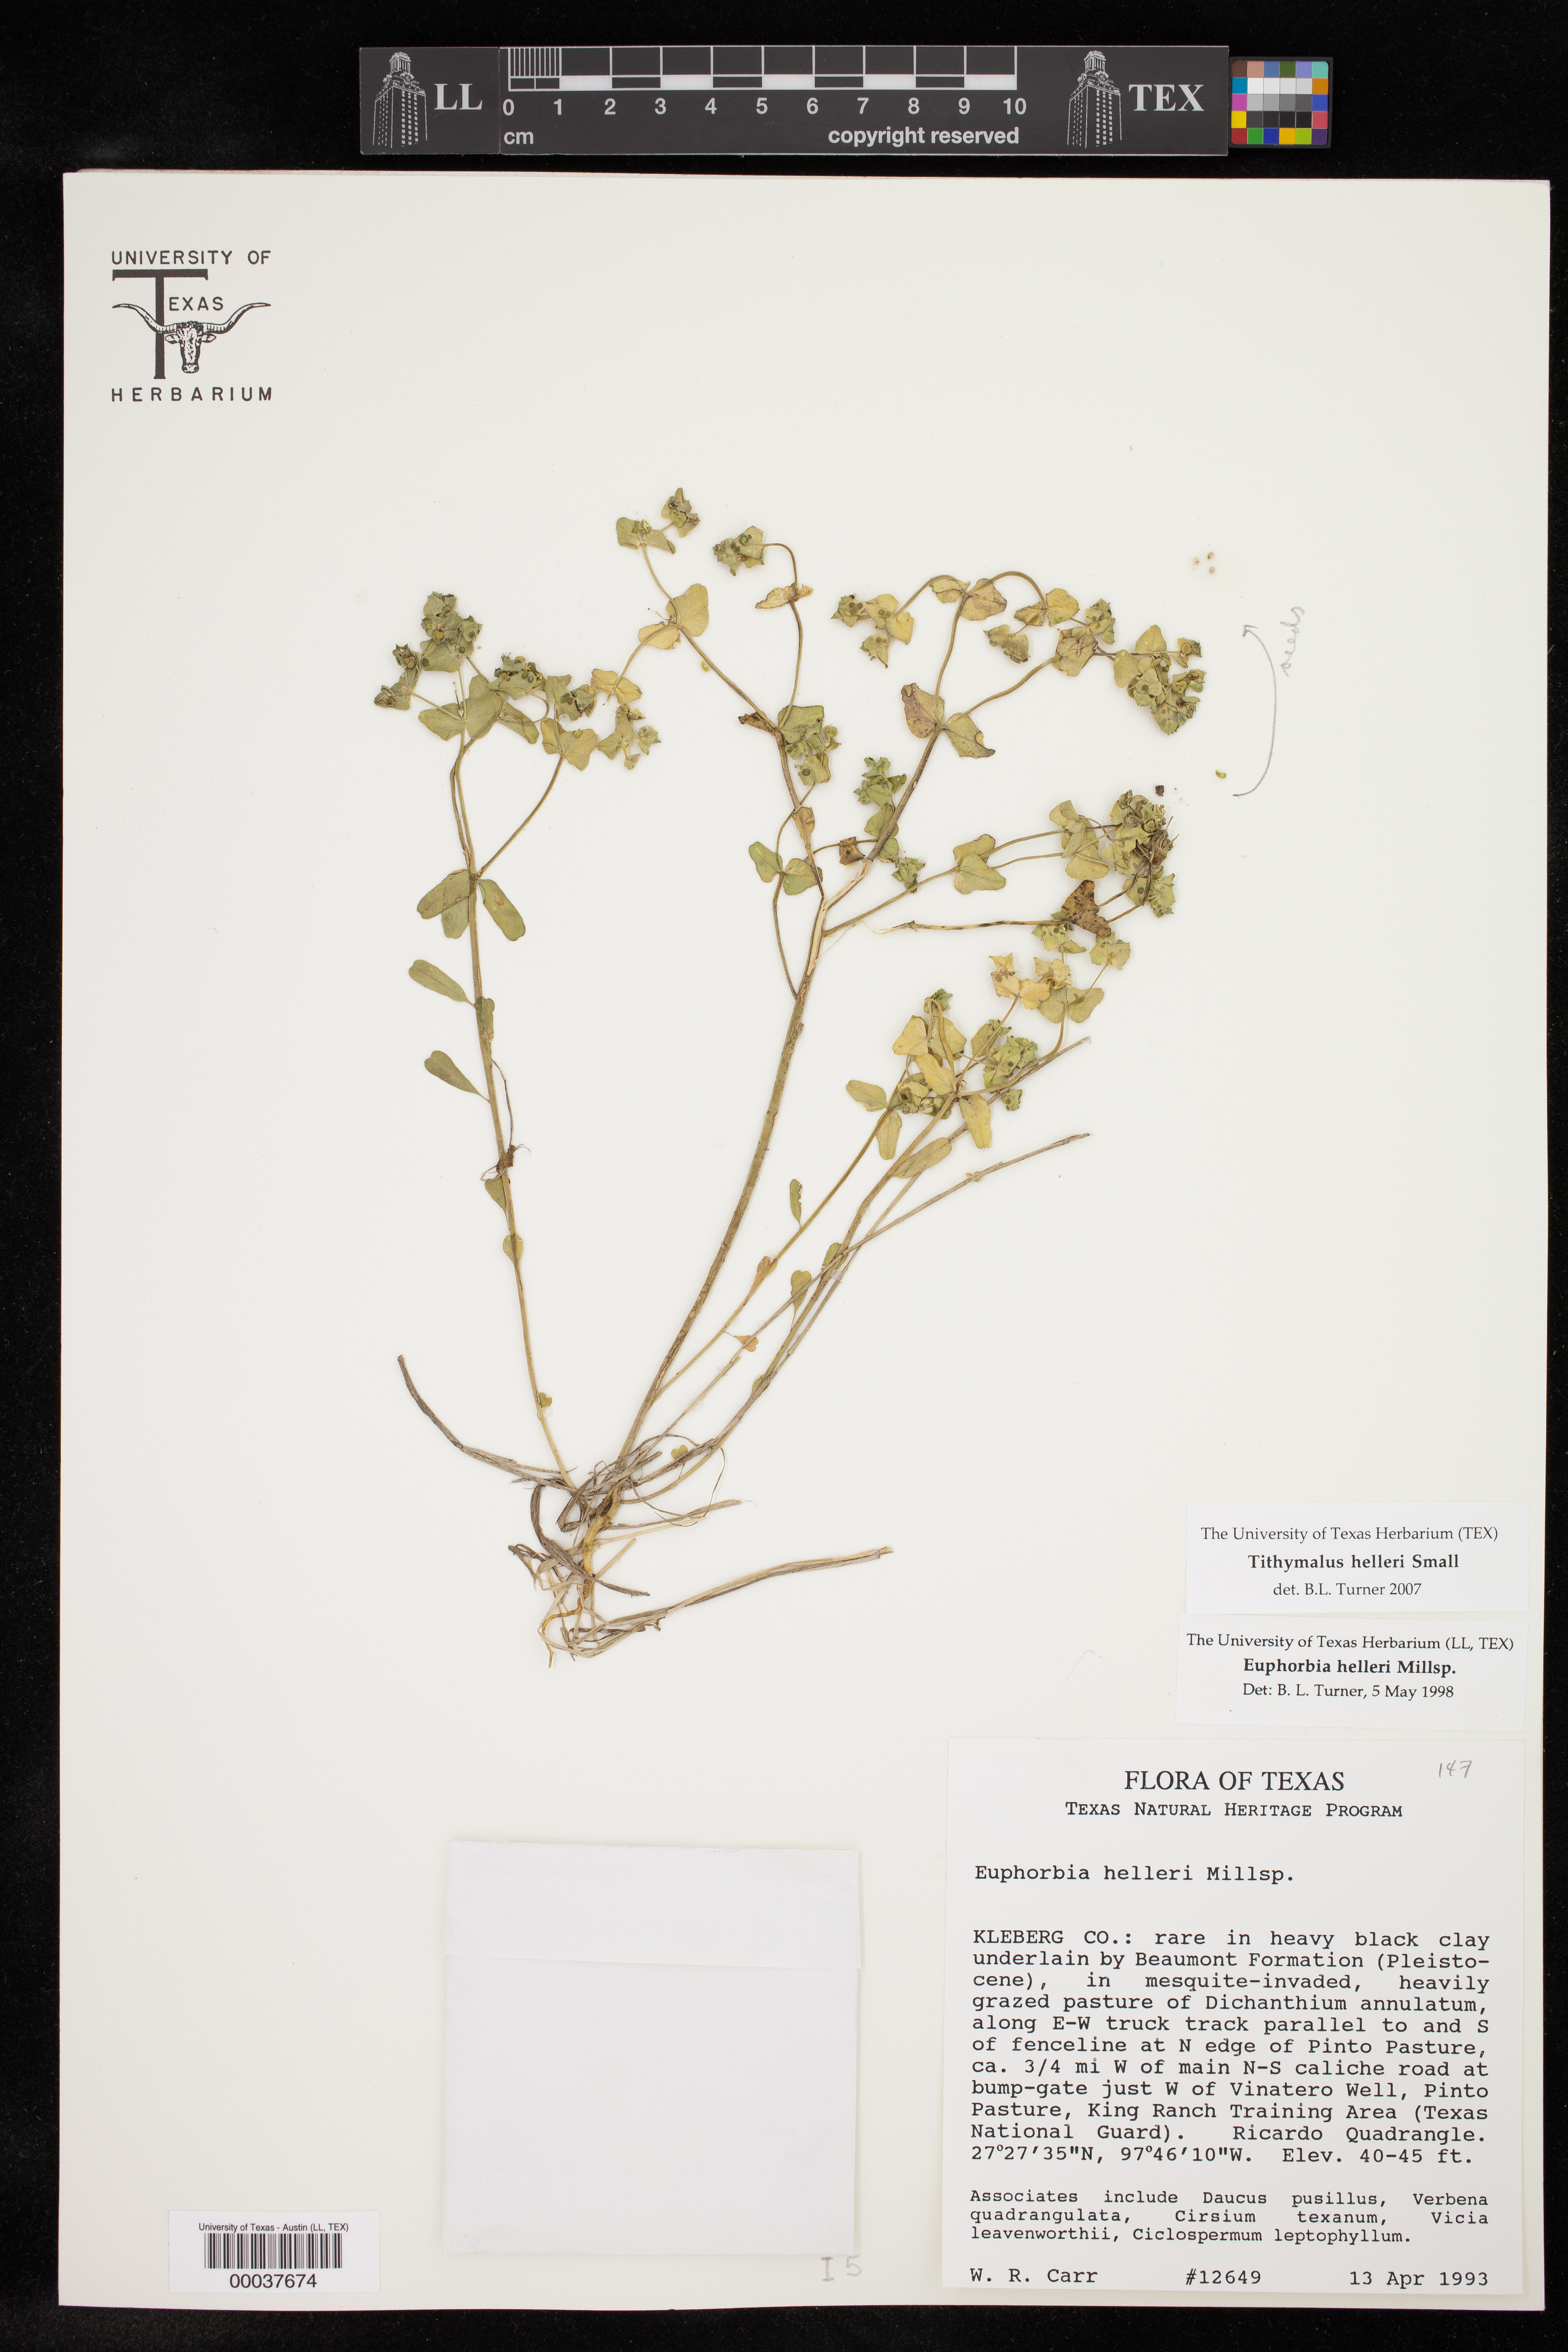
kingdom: Plantae
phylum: Tracheophyta
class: Magnoliopsida
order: Malpighiales
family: Euphorbiaceae
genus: Euphorbia
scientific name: Euphorbia helleri
